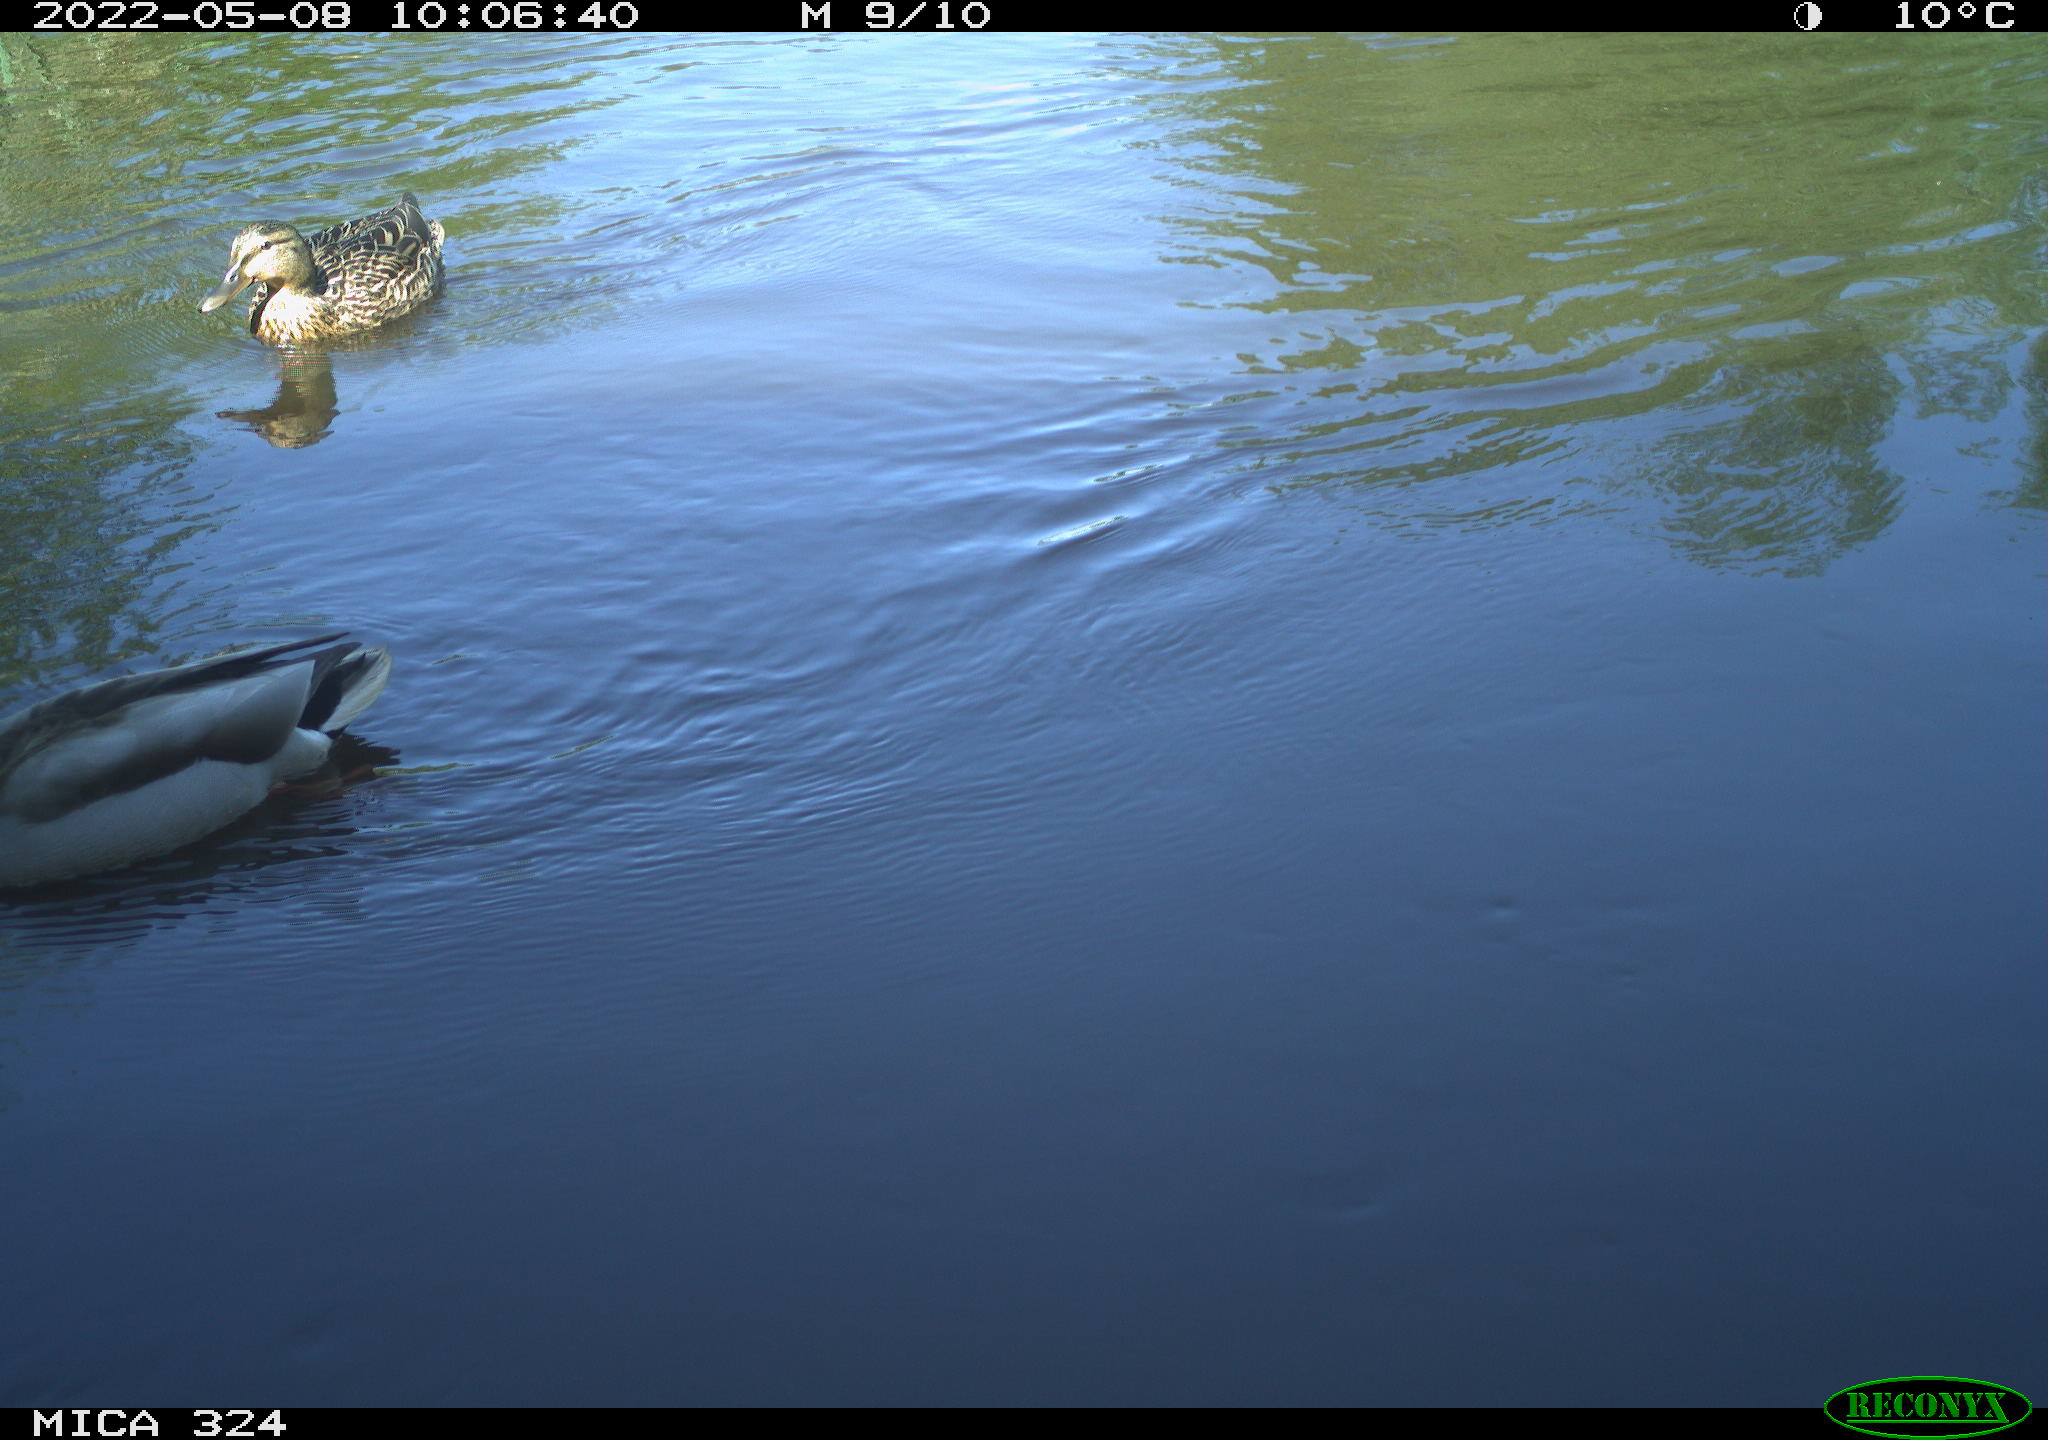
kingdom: Animalia
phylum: Chordata
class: Aves
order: Anseriformes
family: Anatidae
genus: Anas
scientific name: Anas platyrhynchos
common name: Mallard
